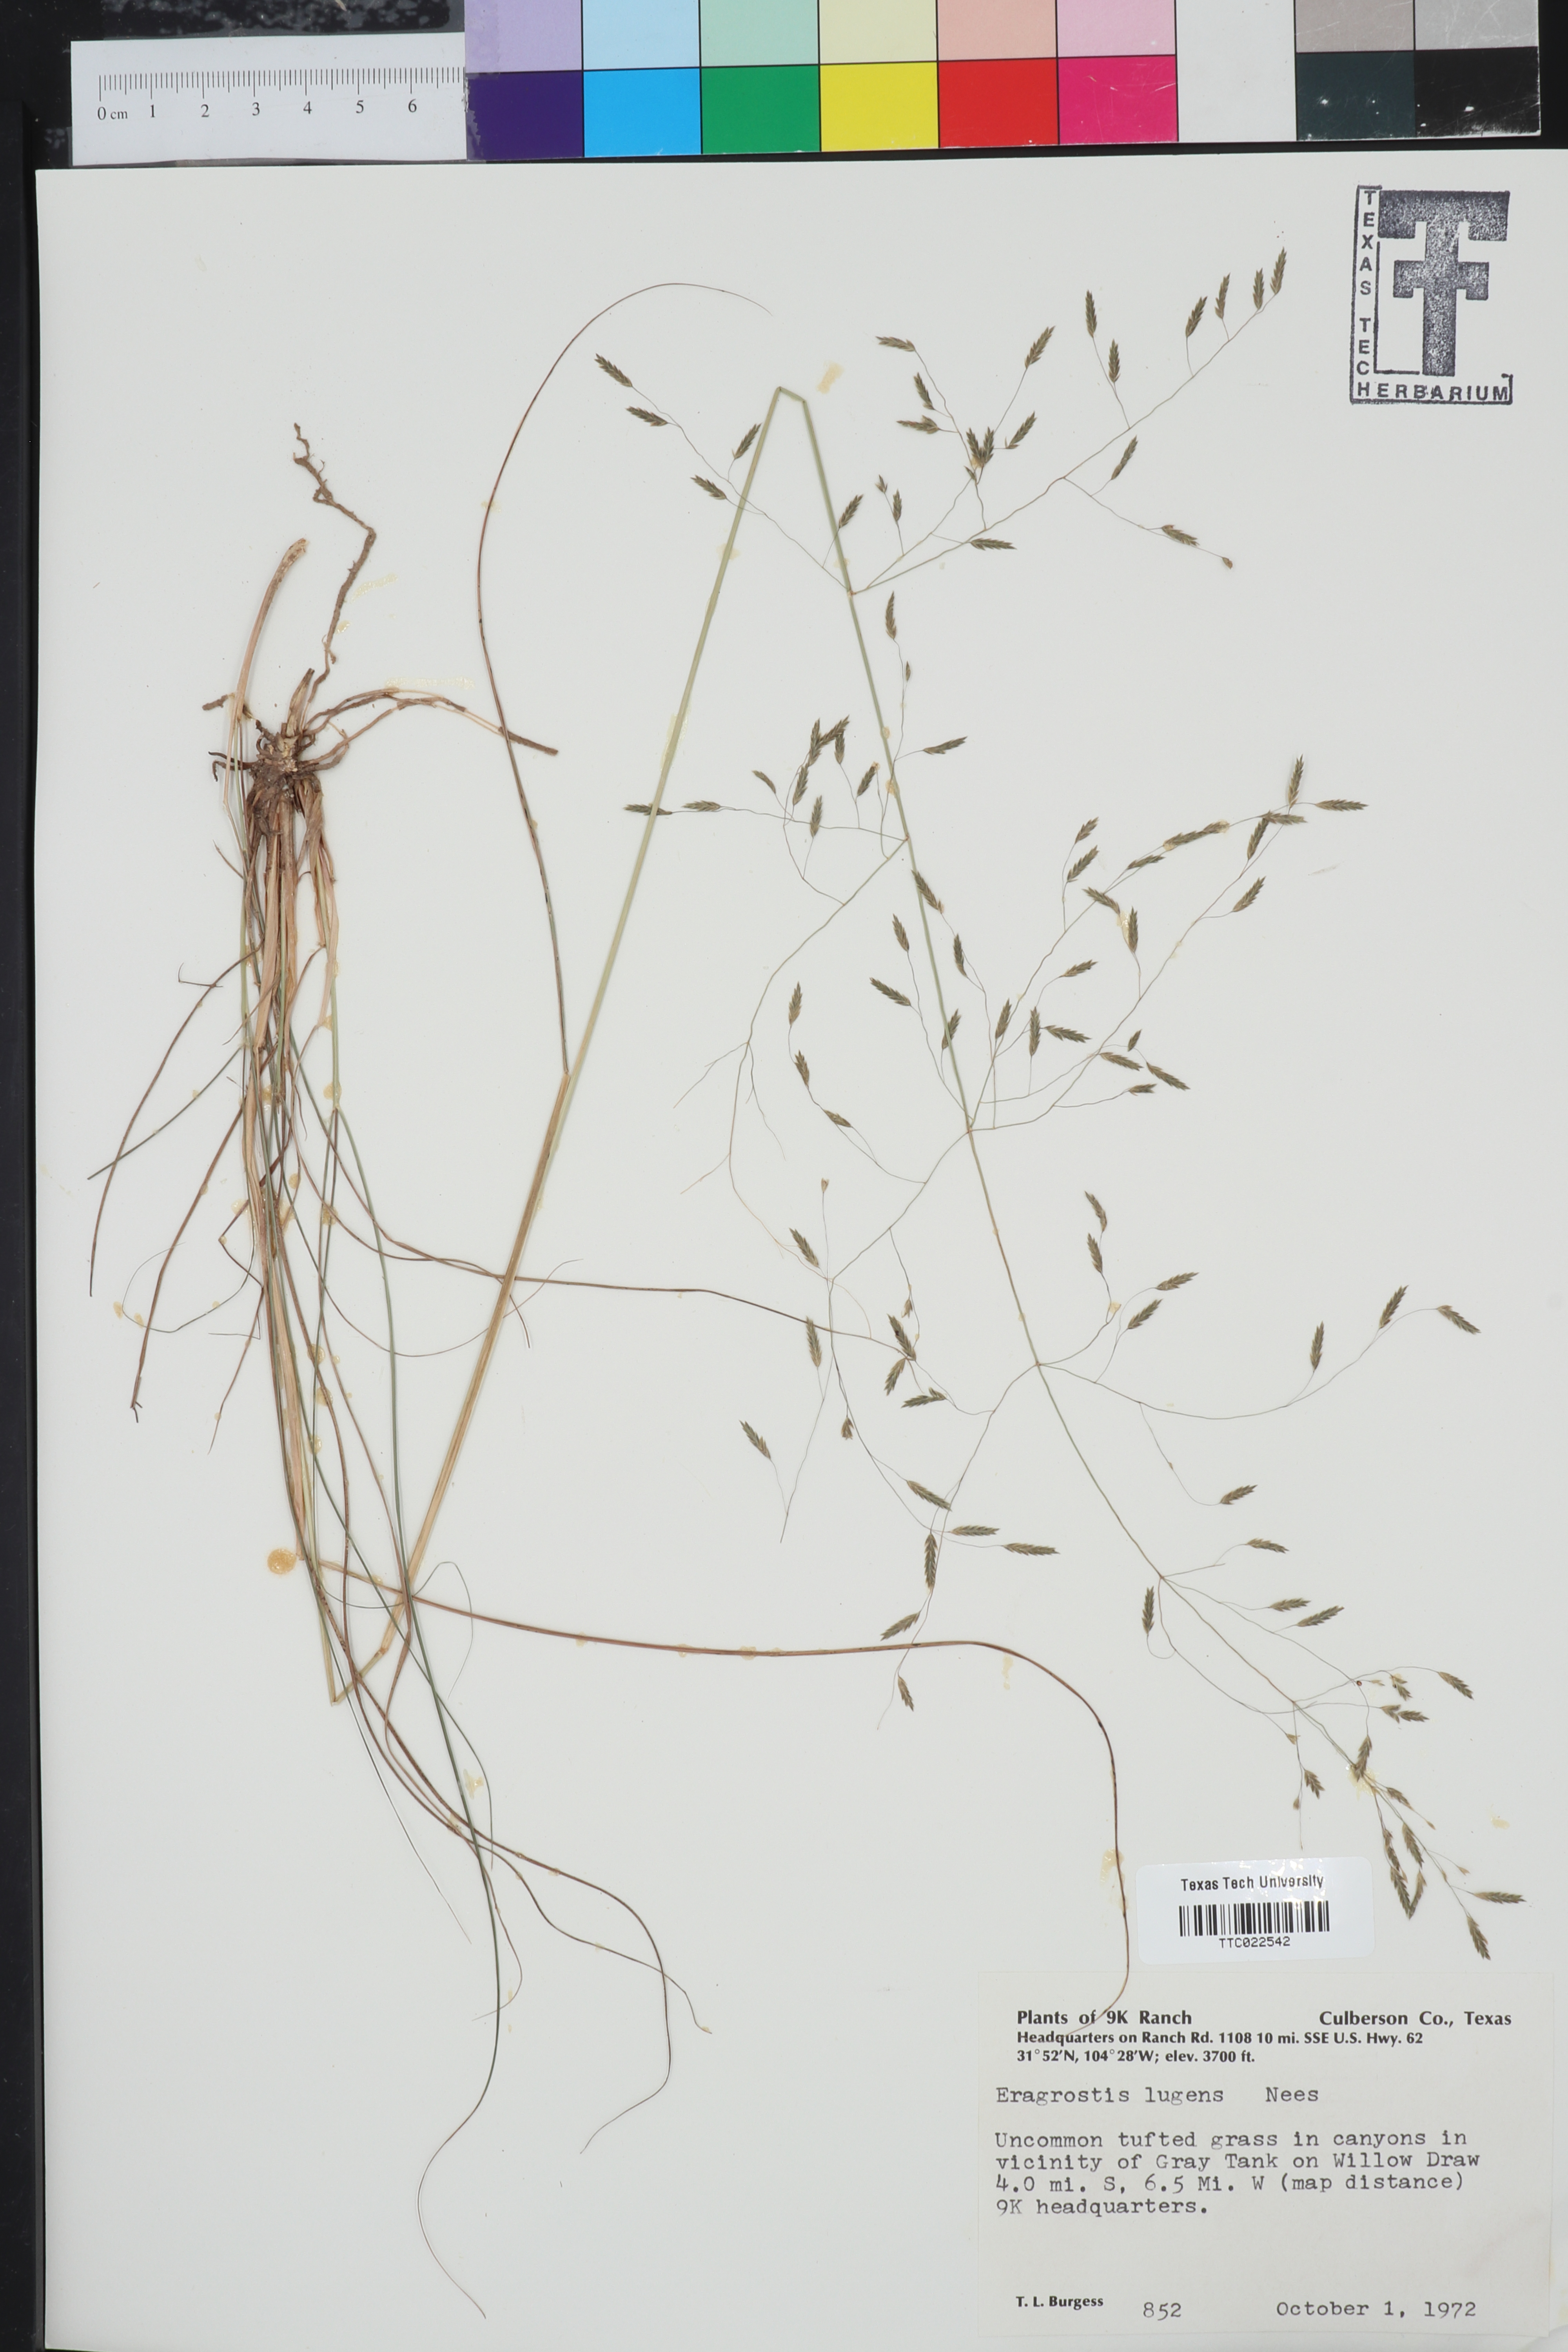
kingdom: Plantae
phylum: Tracheophyta
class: Liliopsida
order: Poales
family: Poaceae
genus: Eragrostis
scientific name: Eragrostis capillaris
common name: Hair-like lovegrass
